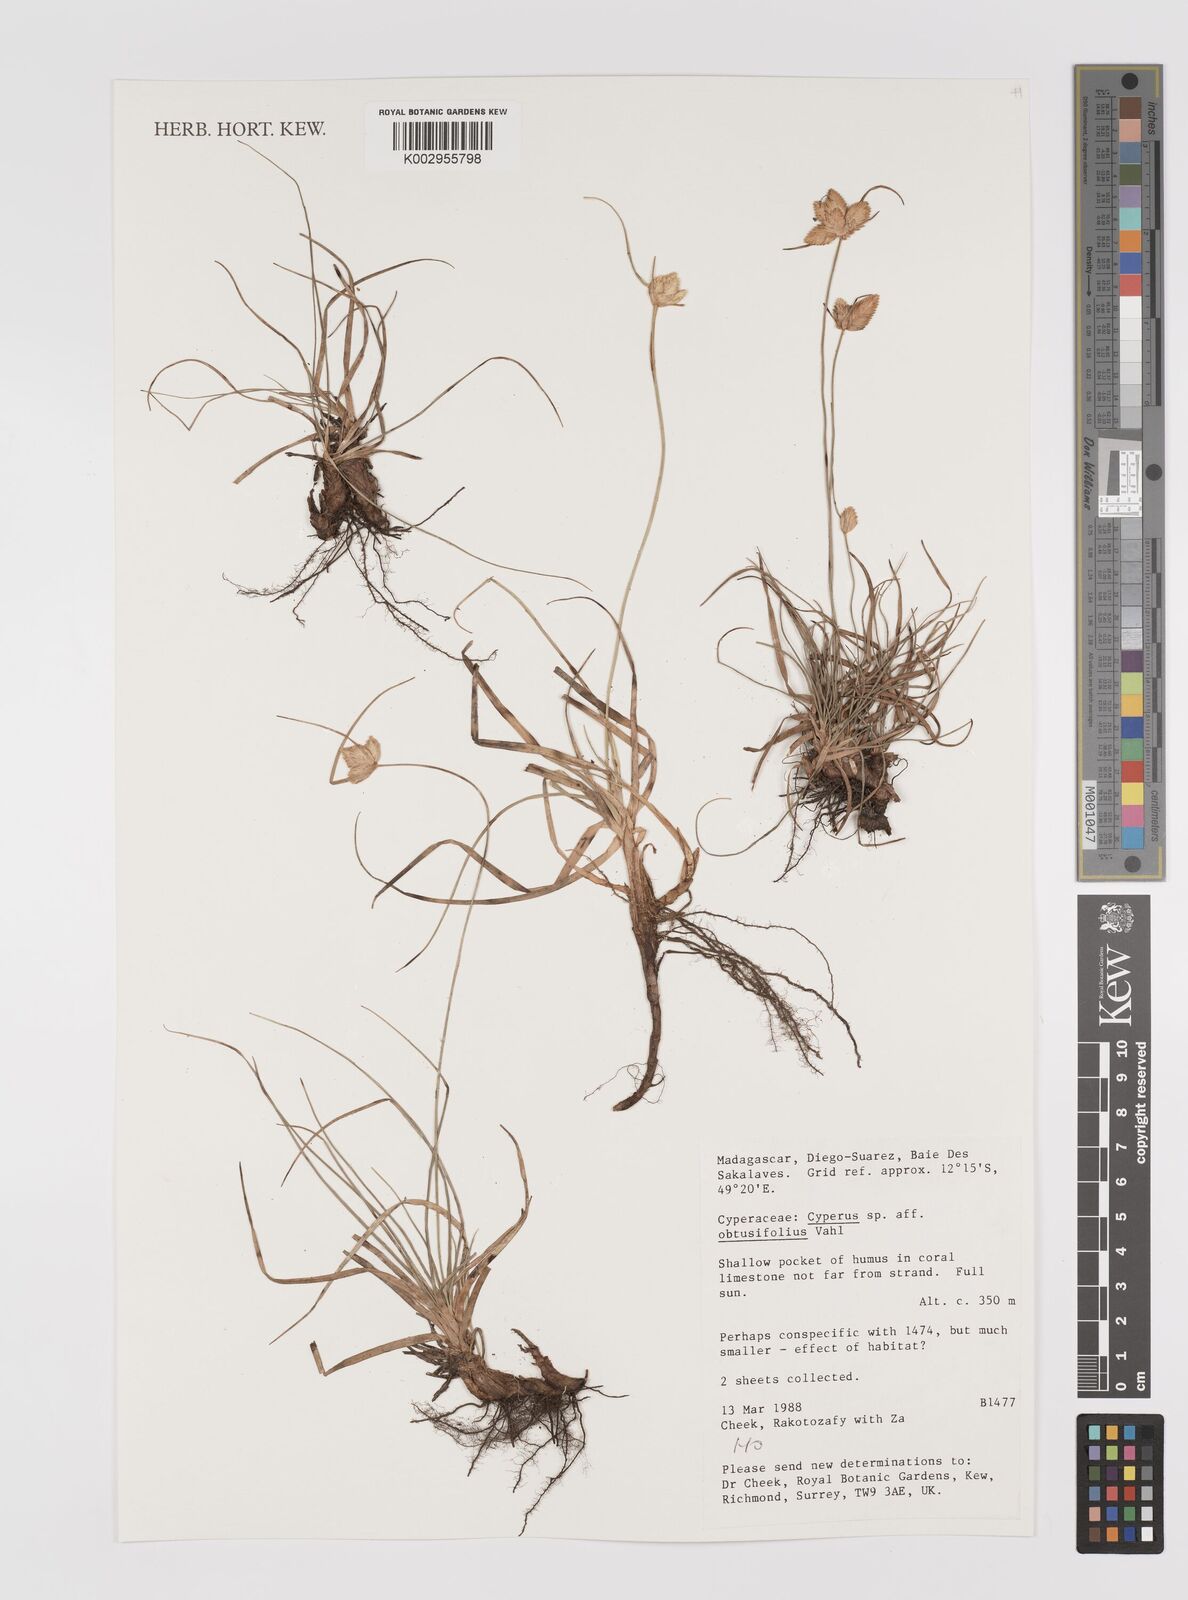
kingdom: Plantae
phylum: Tracheophyta
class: Liliopsida
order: Poales
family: Cyperaceae
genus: Cyperus
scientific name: Cyperus niveus
